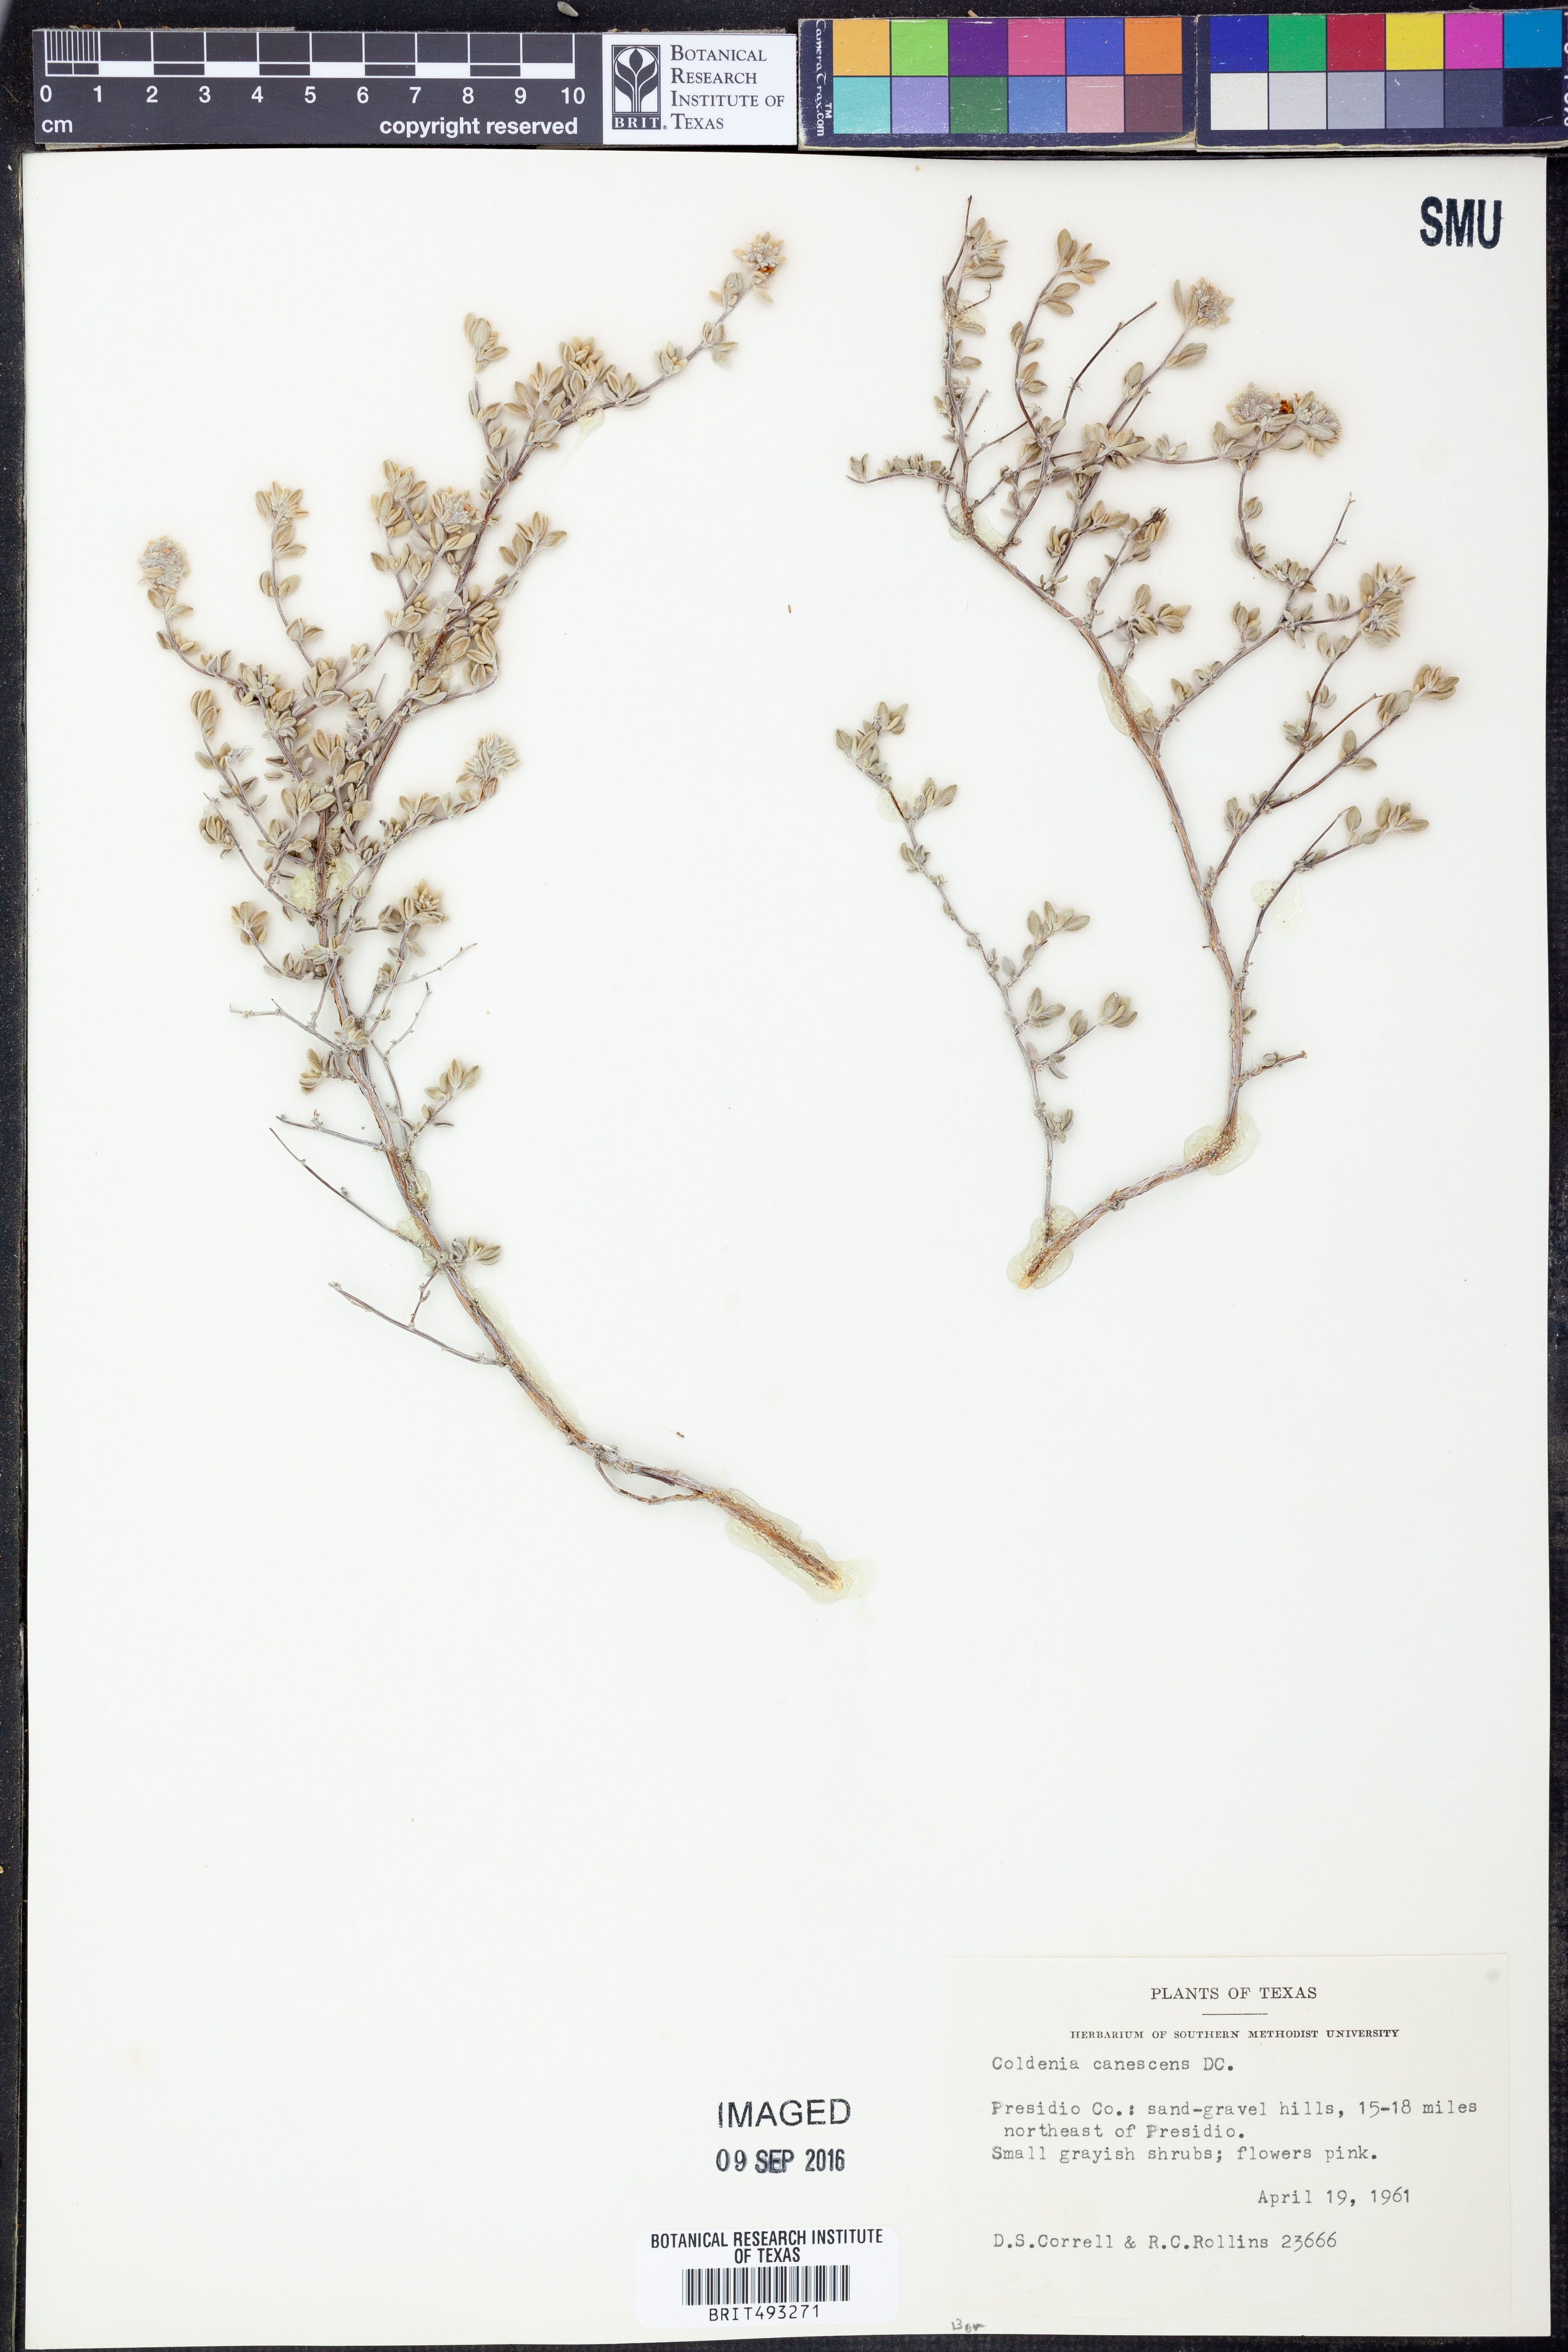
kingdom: Plantae
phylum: Tracheophyta
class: Magnoliopsida
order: Boraginales
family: Ehretiaceae
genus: Tiquilia
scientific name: Tiquilia canescens
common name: Hairy tiquilia
